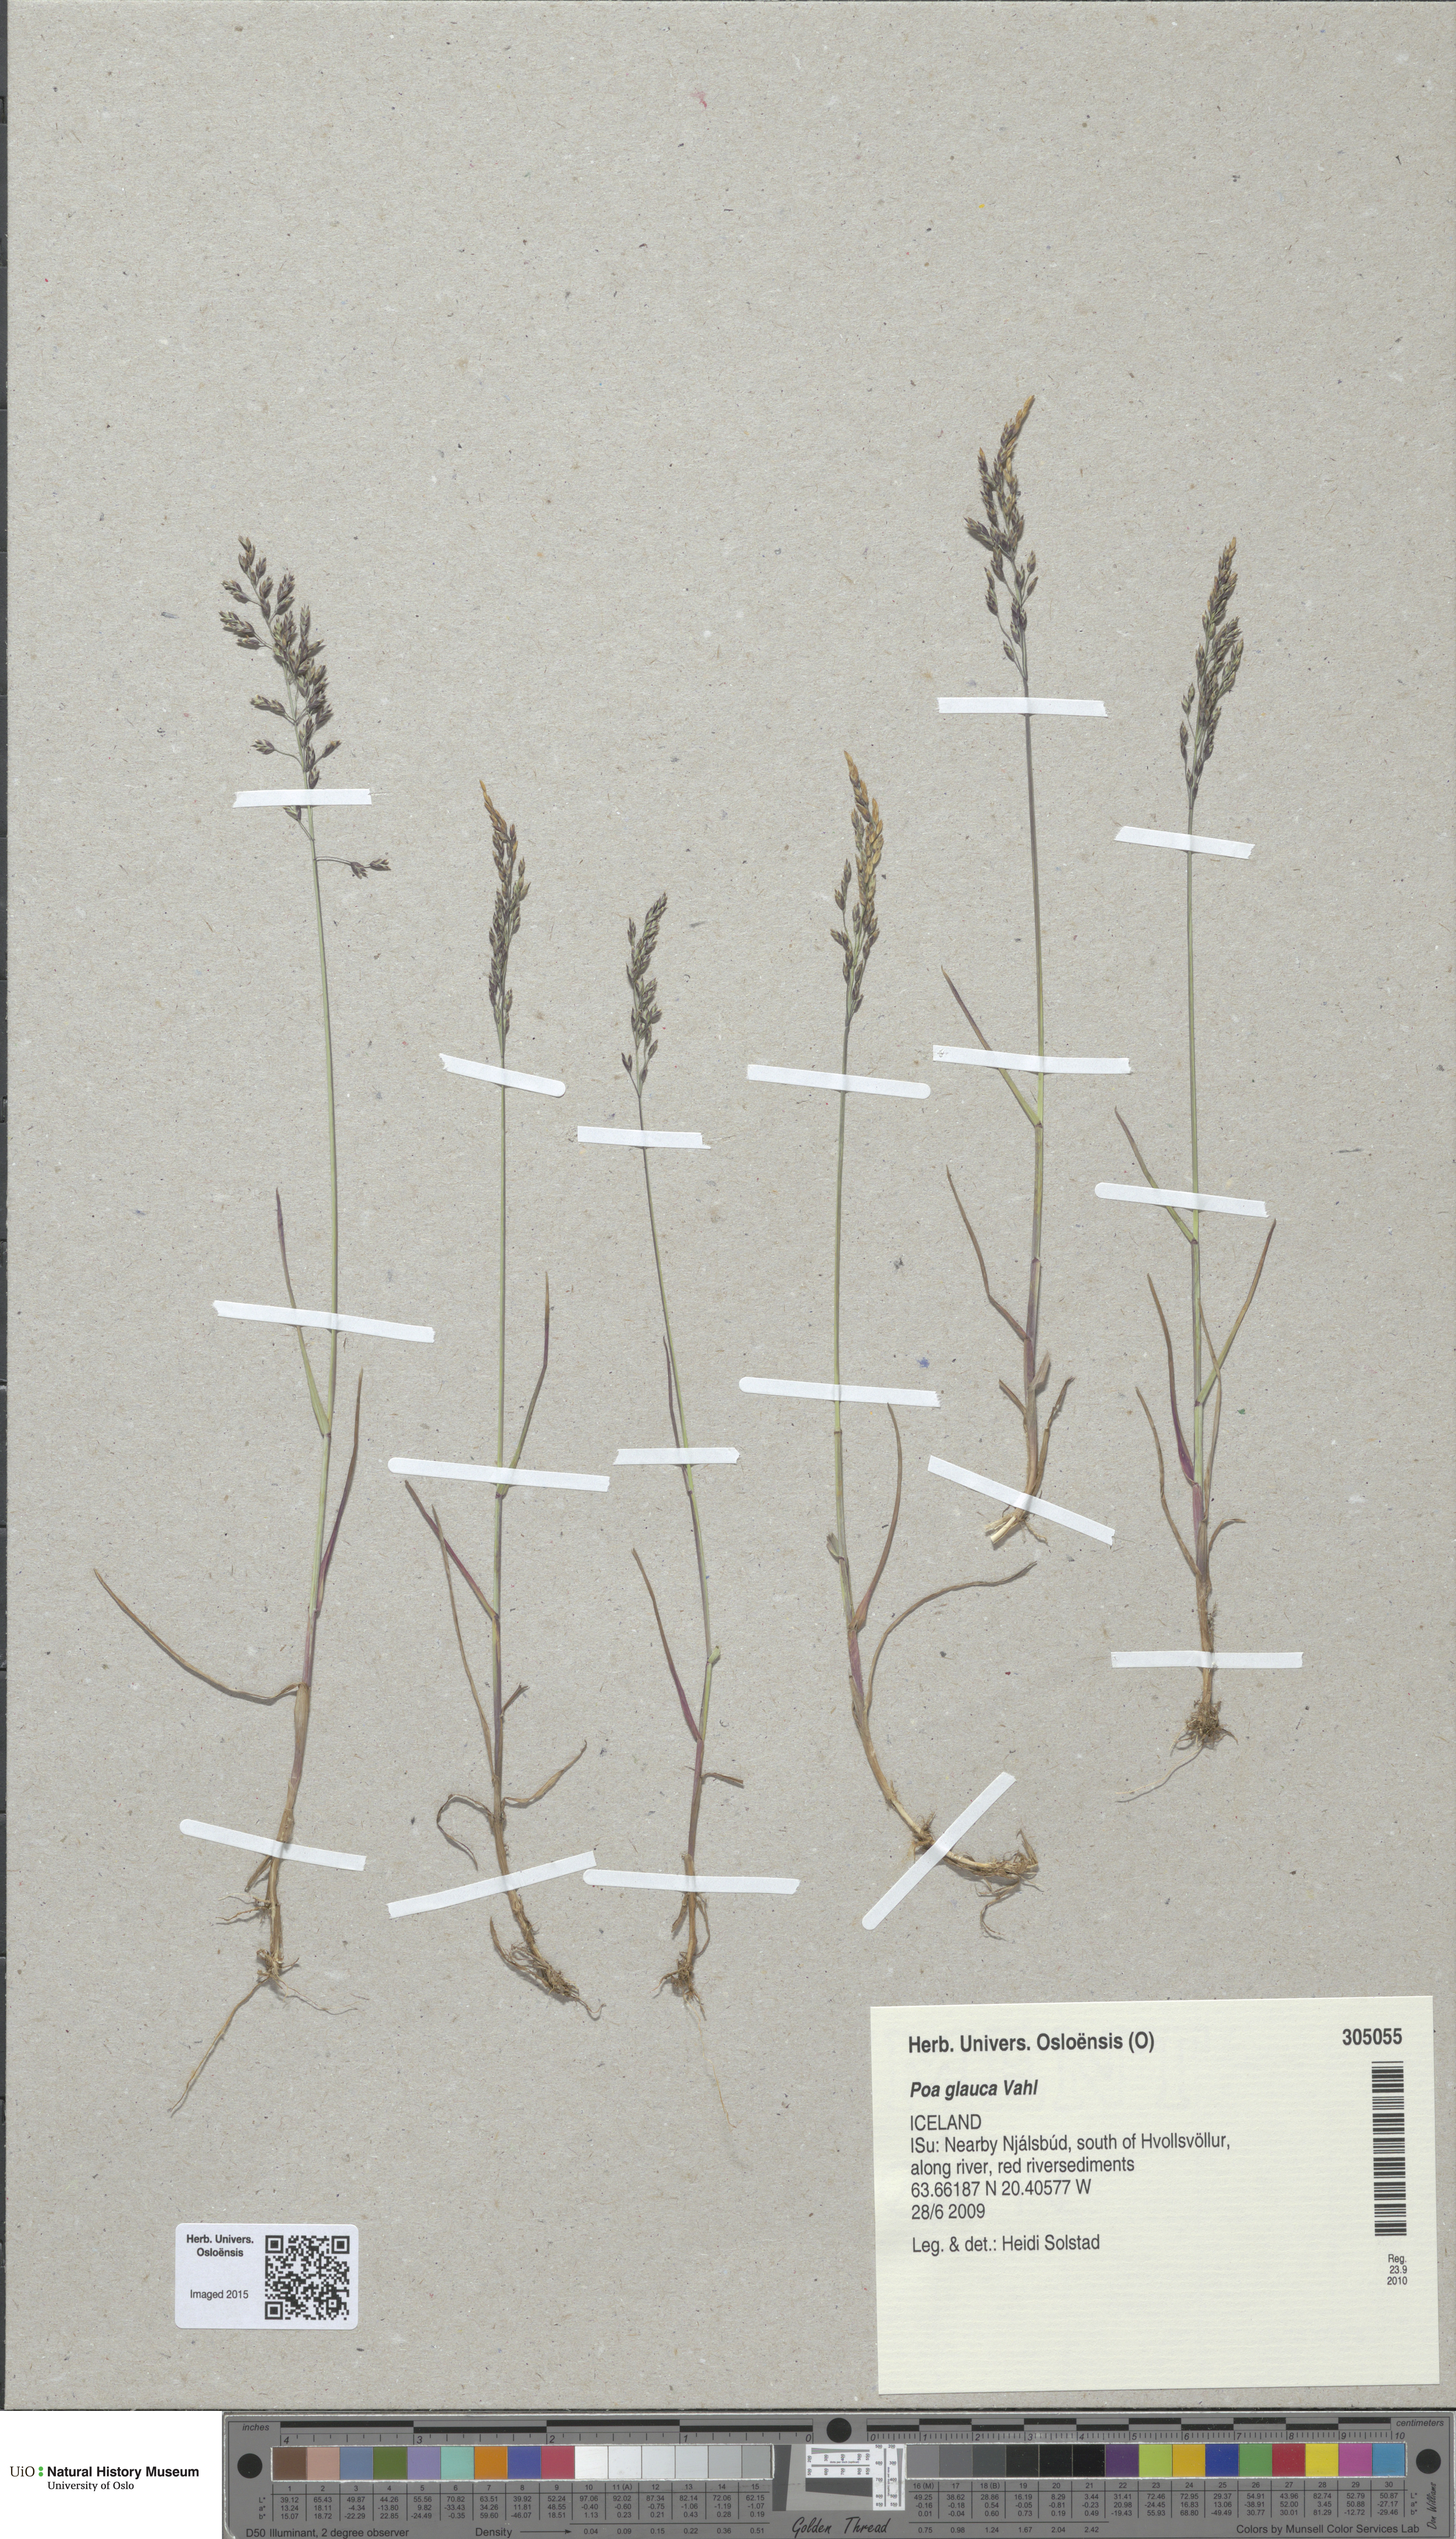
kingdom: Plantae
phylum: Tracheophyta
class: Liliopsida
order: Poales
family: Poaceae
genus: Poa
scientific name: Poa glauca
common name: Glaucous bluegrass
